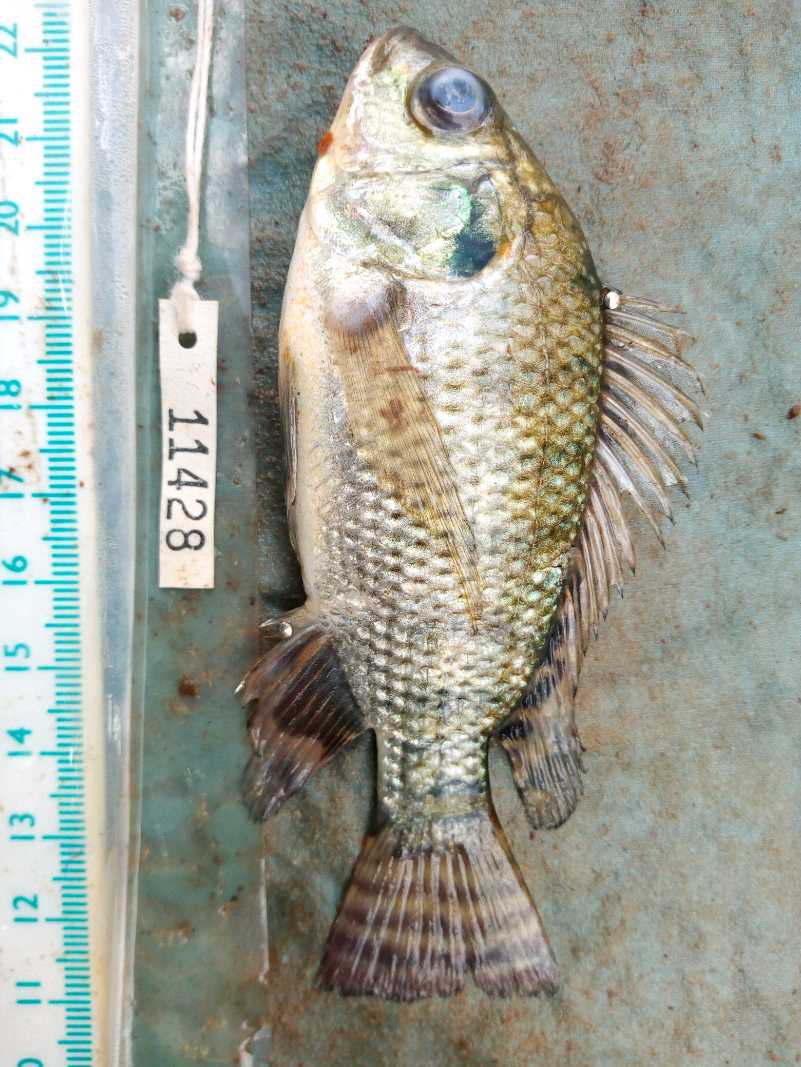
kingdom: Animalia
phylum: Chordata
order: Perciformes
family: Cichlidae
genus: Oreochromis
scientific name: Oreochromis niloticus
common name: Nile tilapia
